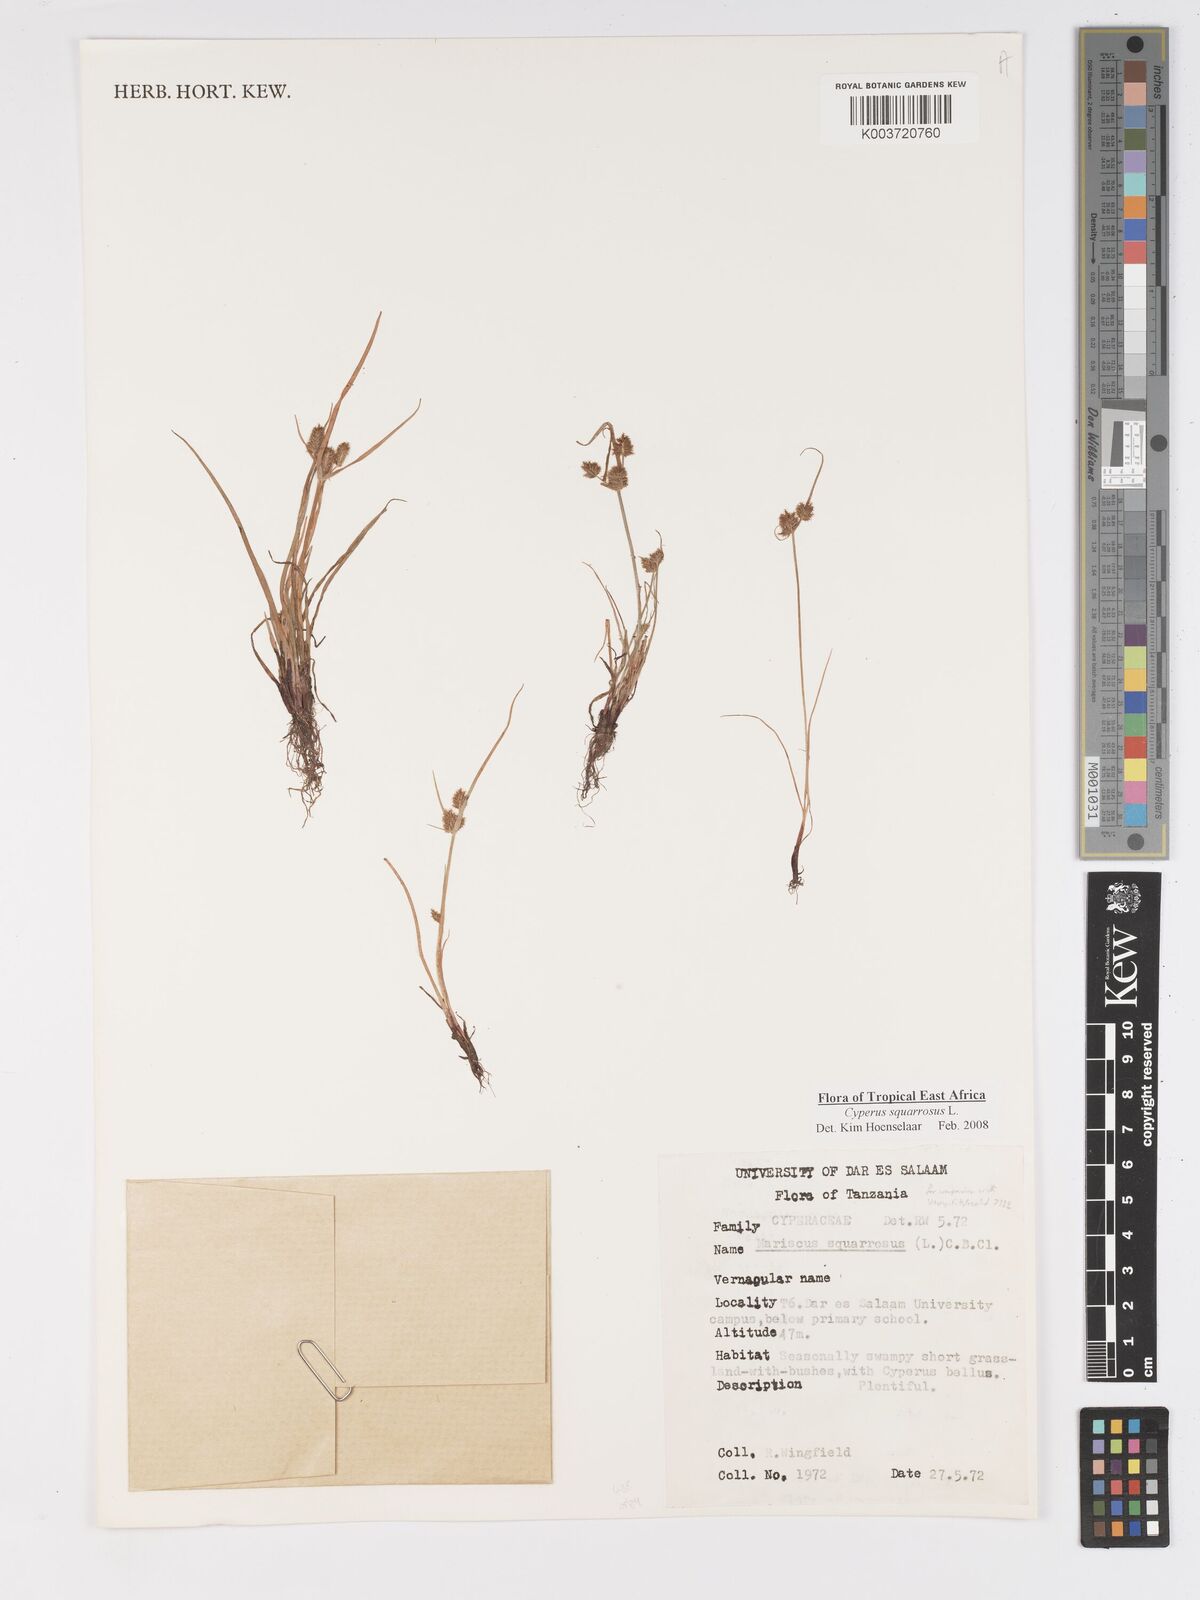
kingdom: Plantae
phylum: Tracheophyta
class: Liliopsida
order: Poales
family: Cyperaceae
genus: Cyperus
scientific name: Cyperus squarrosus
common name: Awned cyperus
